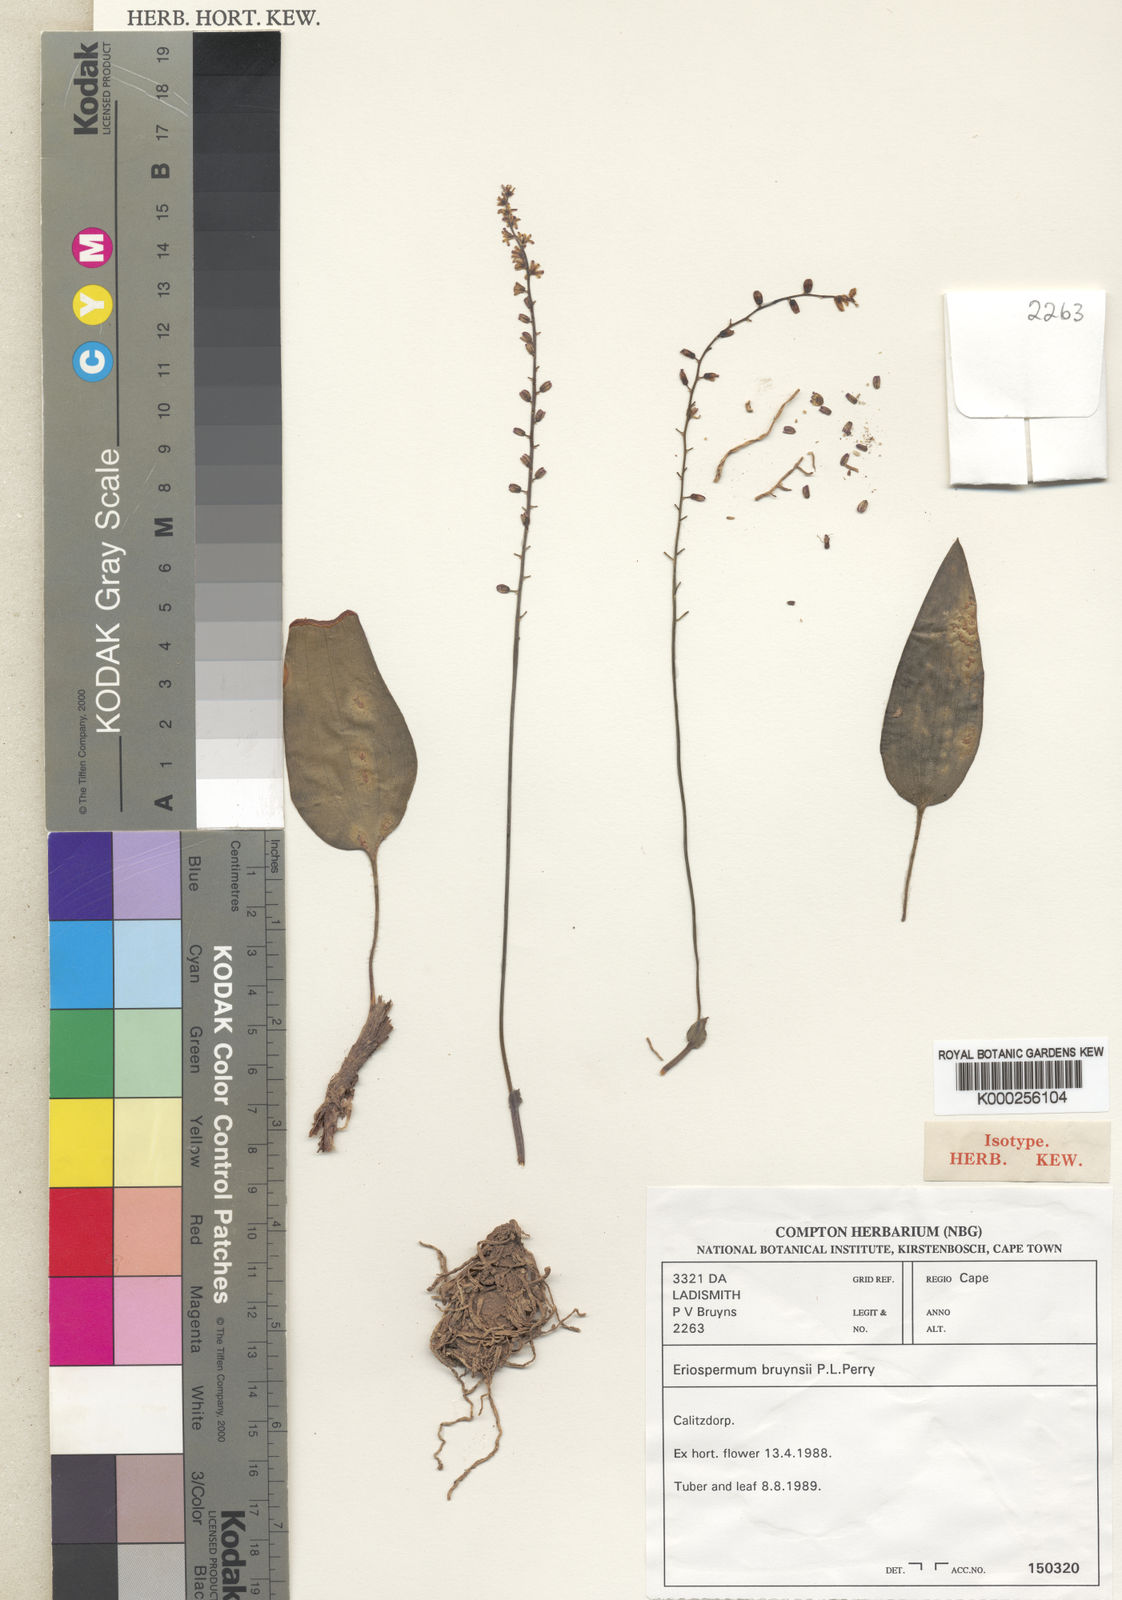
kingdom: Plantae
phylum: Tracheophyta
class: Liliopsida
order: Asparagales
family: Asparagaceae
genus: Eriospermum
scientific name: Eriospermum bruynsii
